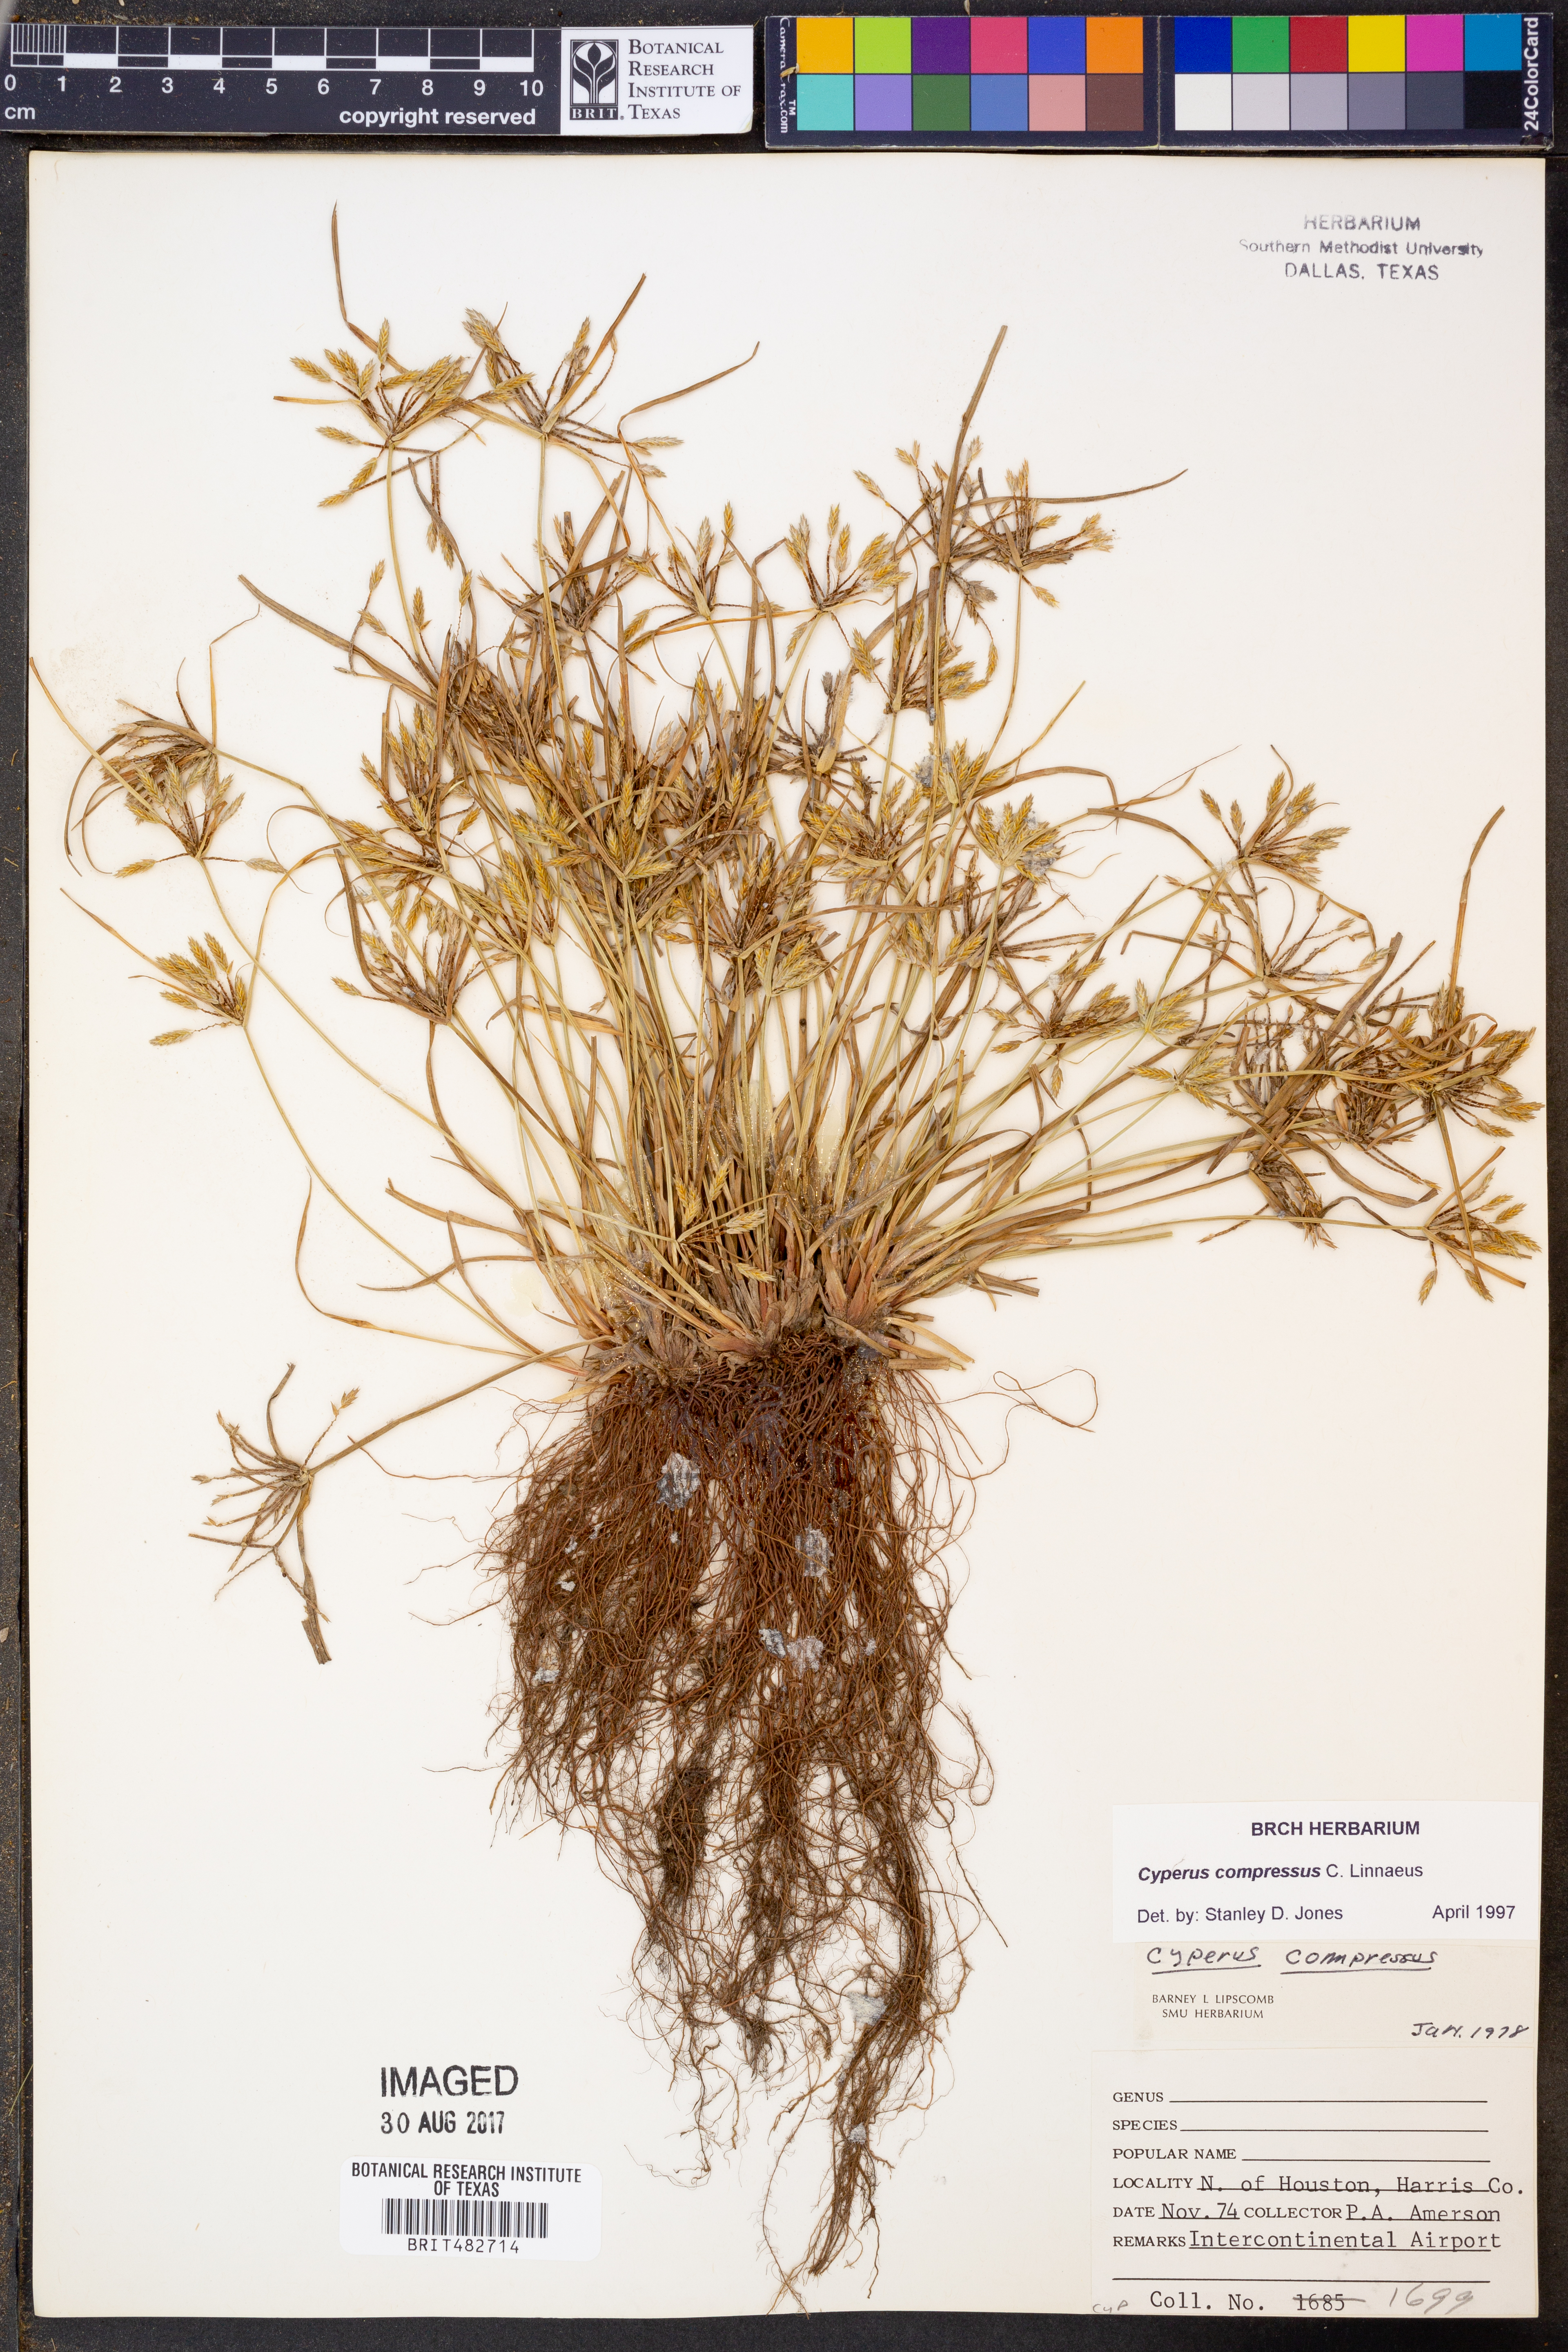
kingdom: Plantae
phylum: Tracheophyta
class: Liliopsida
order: Poales
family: Cyperaceae
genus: Cyperus
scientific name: Cyperus compressus
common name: Poorland flatsedge
